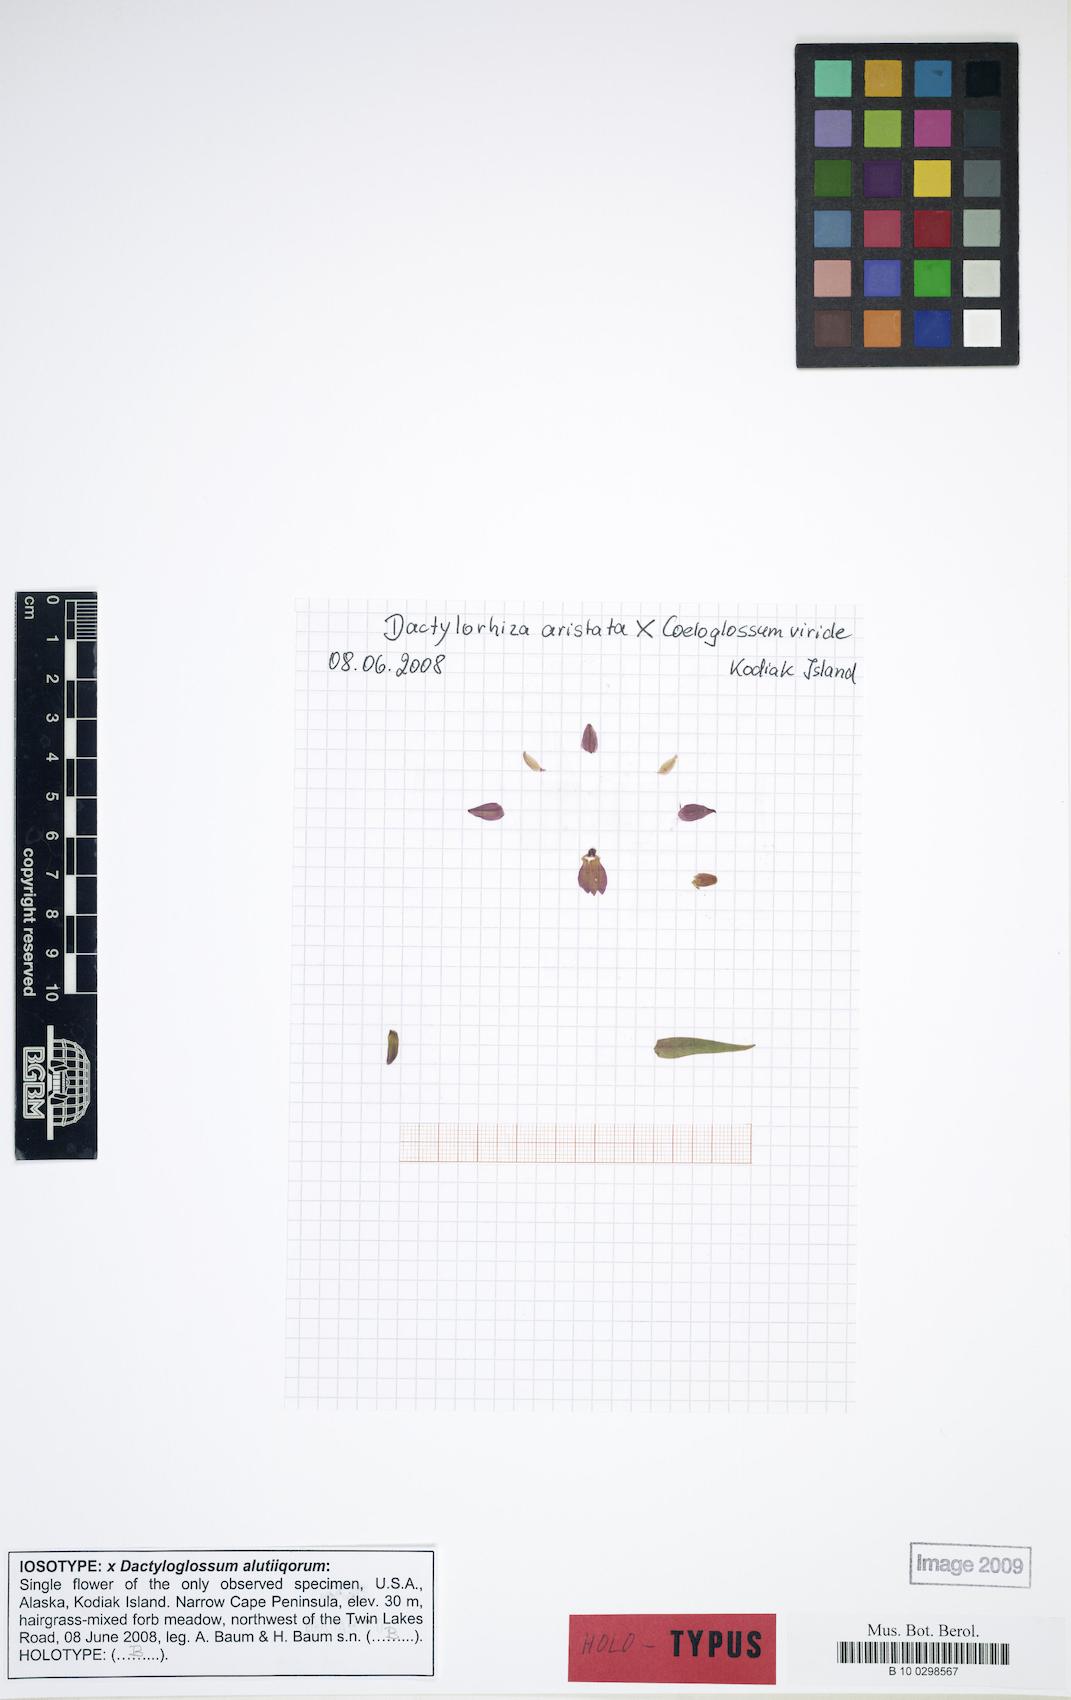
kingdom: Plantae
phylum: Tracheophyta
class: Liliopsida
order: Asparagales
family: Orchidaceae
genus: Dactylorhiza
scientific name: Dactylorhiza alutiiqorum
